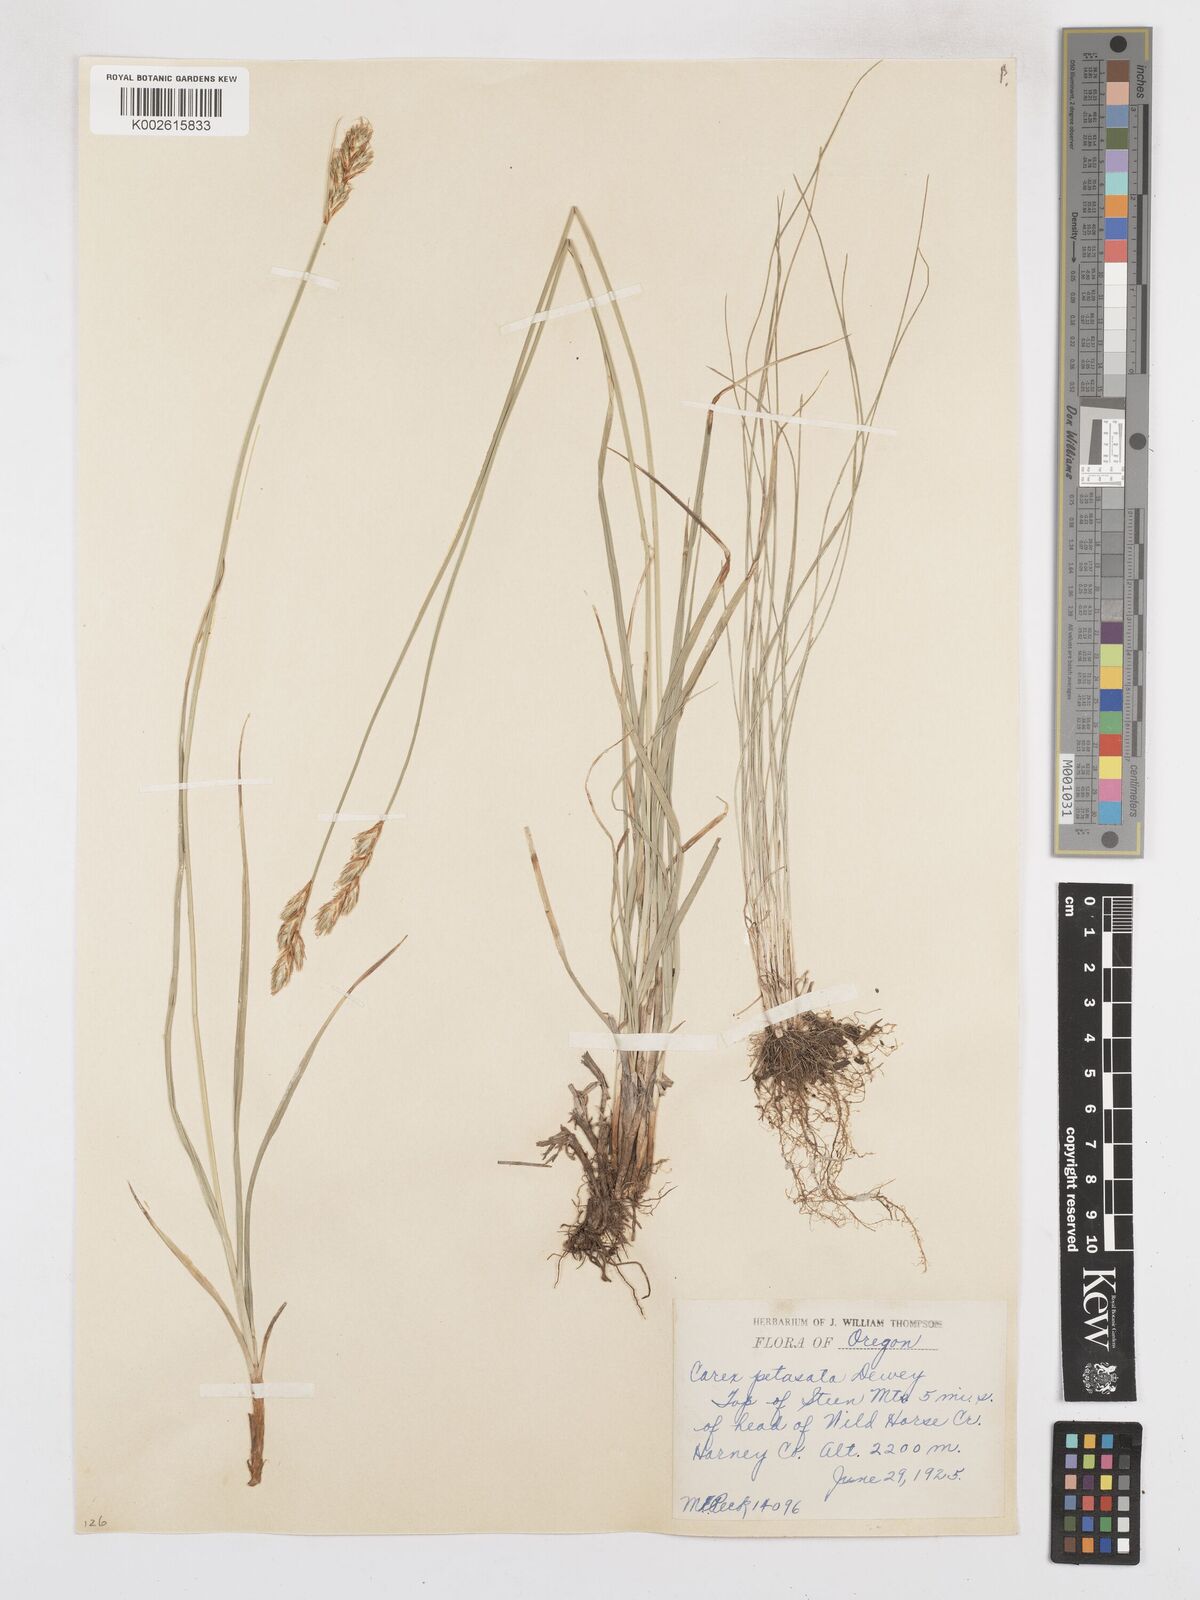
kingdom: Plantae
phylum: Tracheophyta
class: Liliopsida
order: Poales
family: Cyperaceae
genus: Carex
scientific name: Carex petasata
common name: Liddon's sedge
